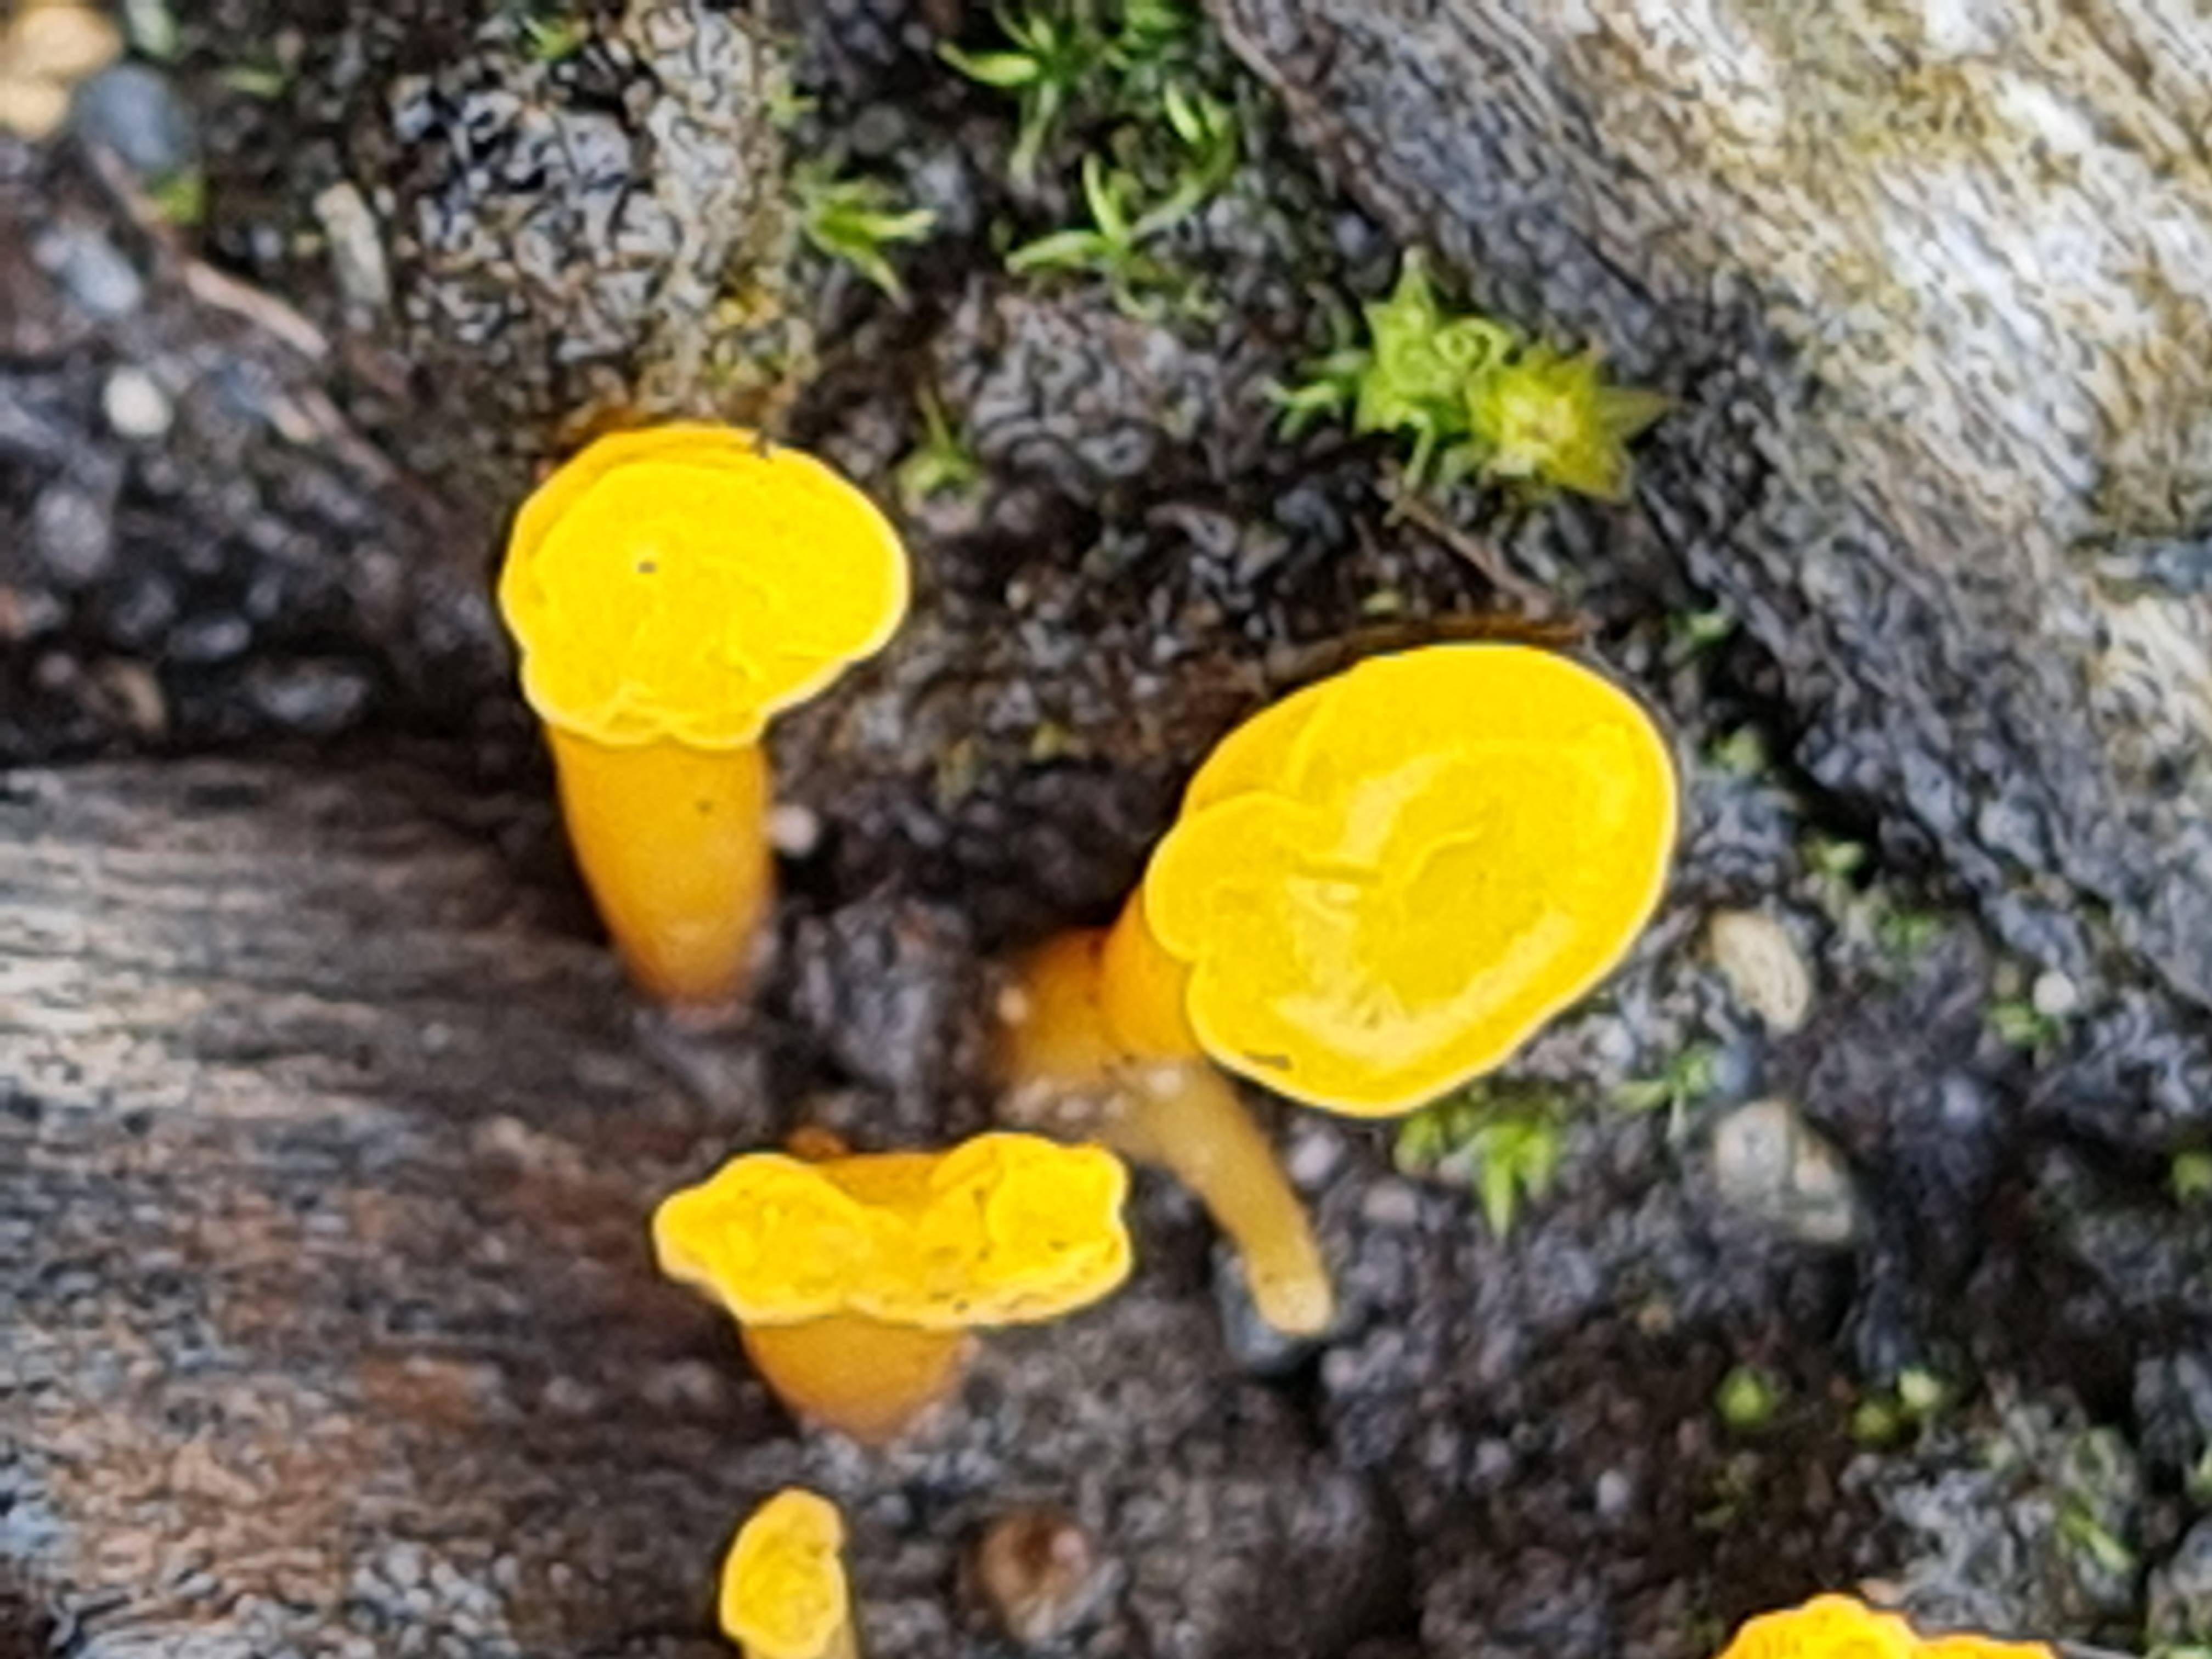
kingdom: Fungi
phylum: Basidiomycota
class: Dacrymycetes
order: Dacrymycetales
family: Dacrymycetaceae
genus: Calocera
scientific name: Calocera
